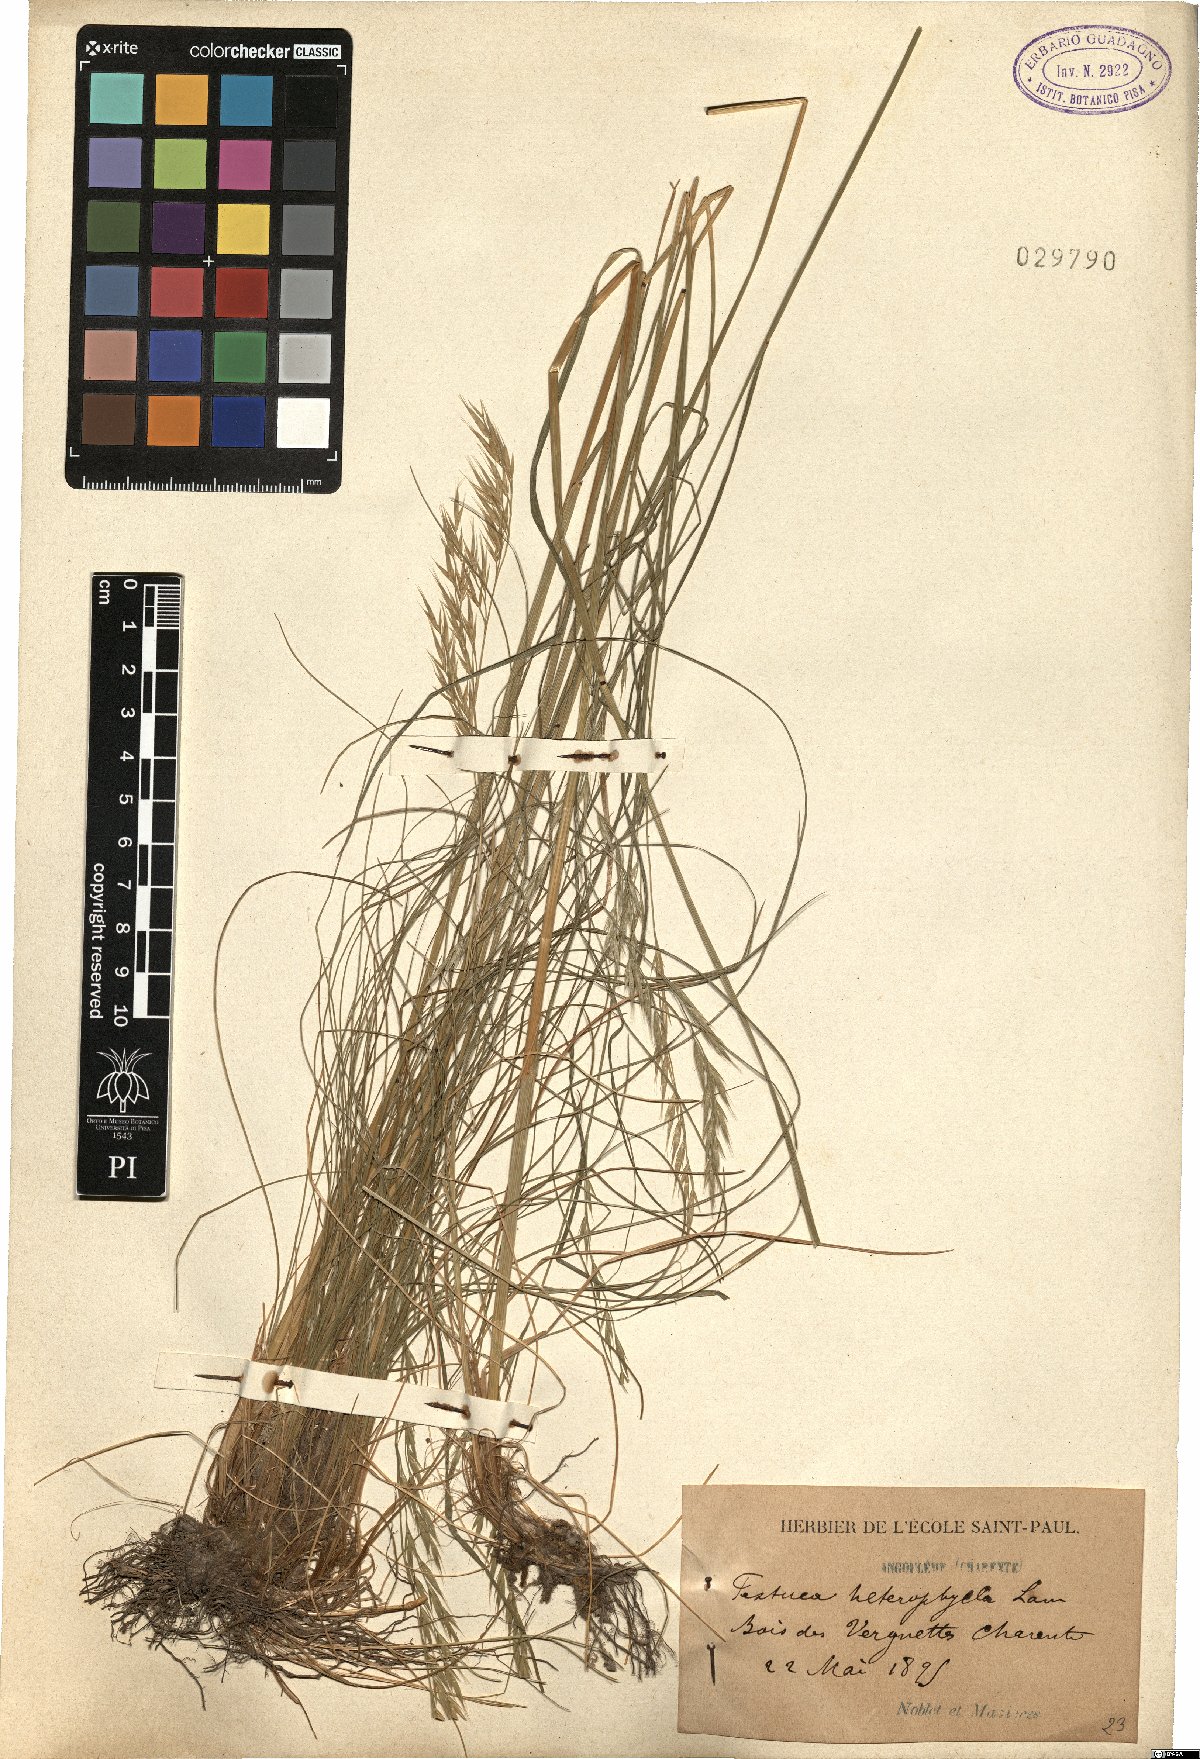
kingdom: Plantae
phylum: Tracheophyta
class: Liliopsida
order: Poales
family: Poaceae
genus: Festuca
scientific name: Festuca heterophylla
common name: Various-leaved fescue
